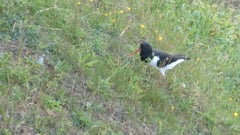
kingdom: Animalia
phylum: Chordata
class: Aves
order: Charadriiformes
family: Haematopodidae
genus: Haematopus
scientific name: Haematopus ostralegus
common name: Eurasian oystercatcher
